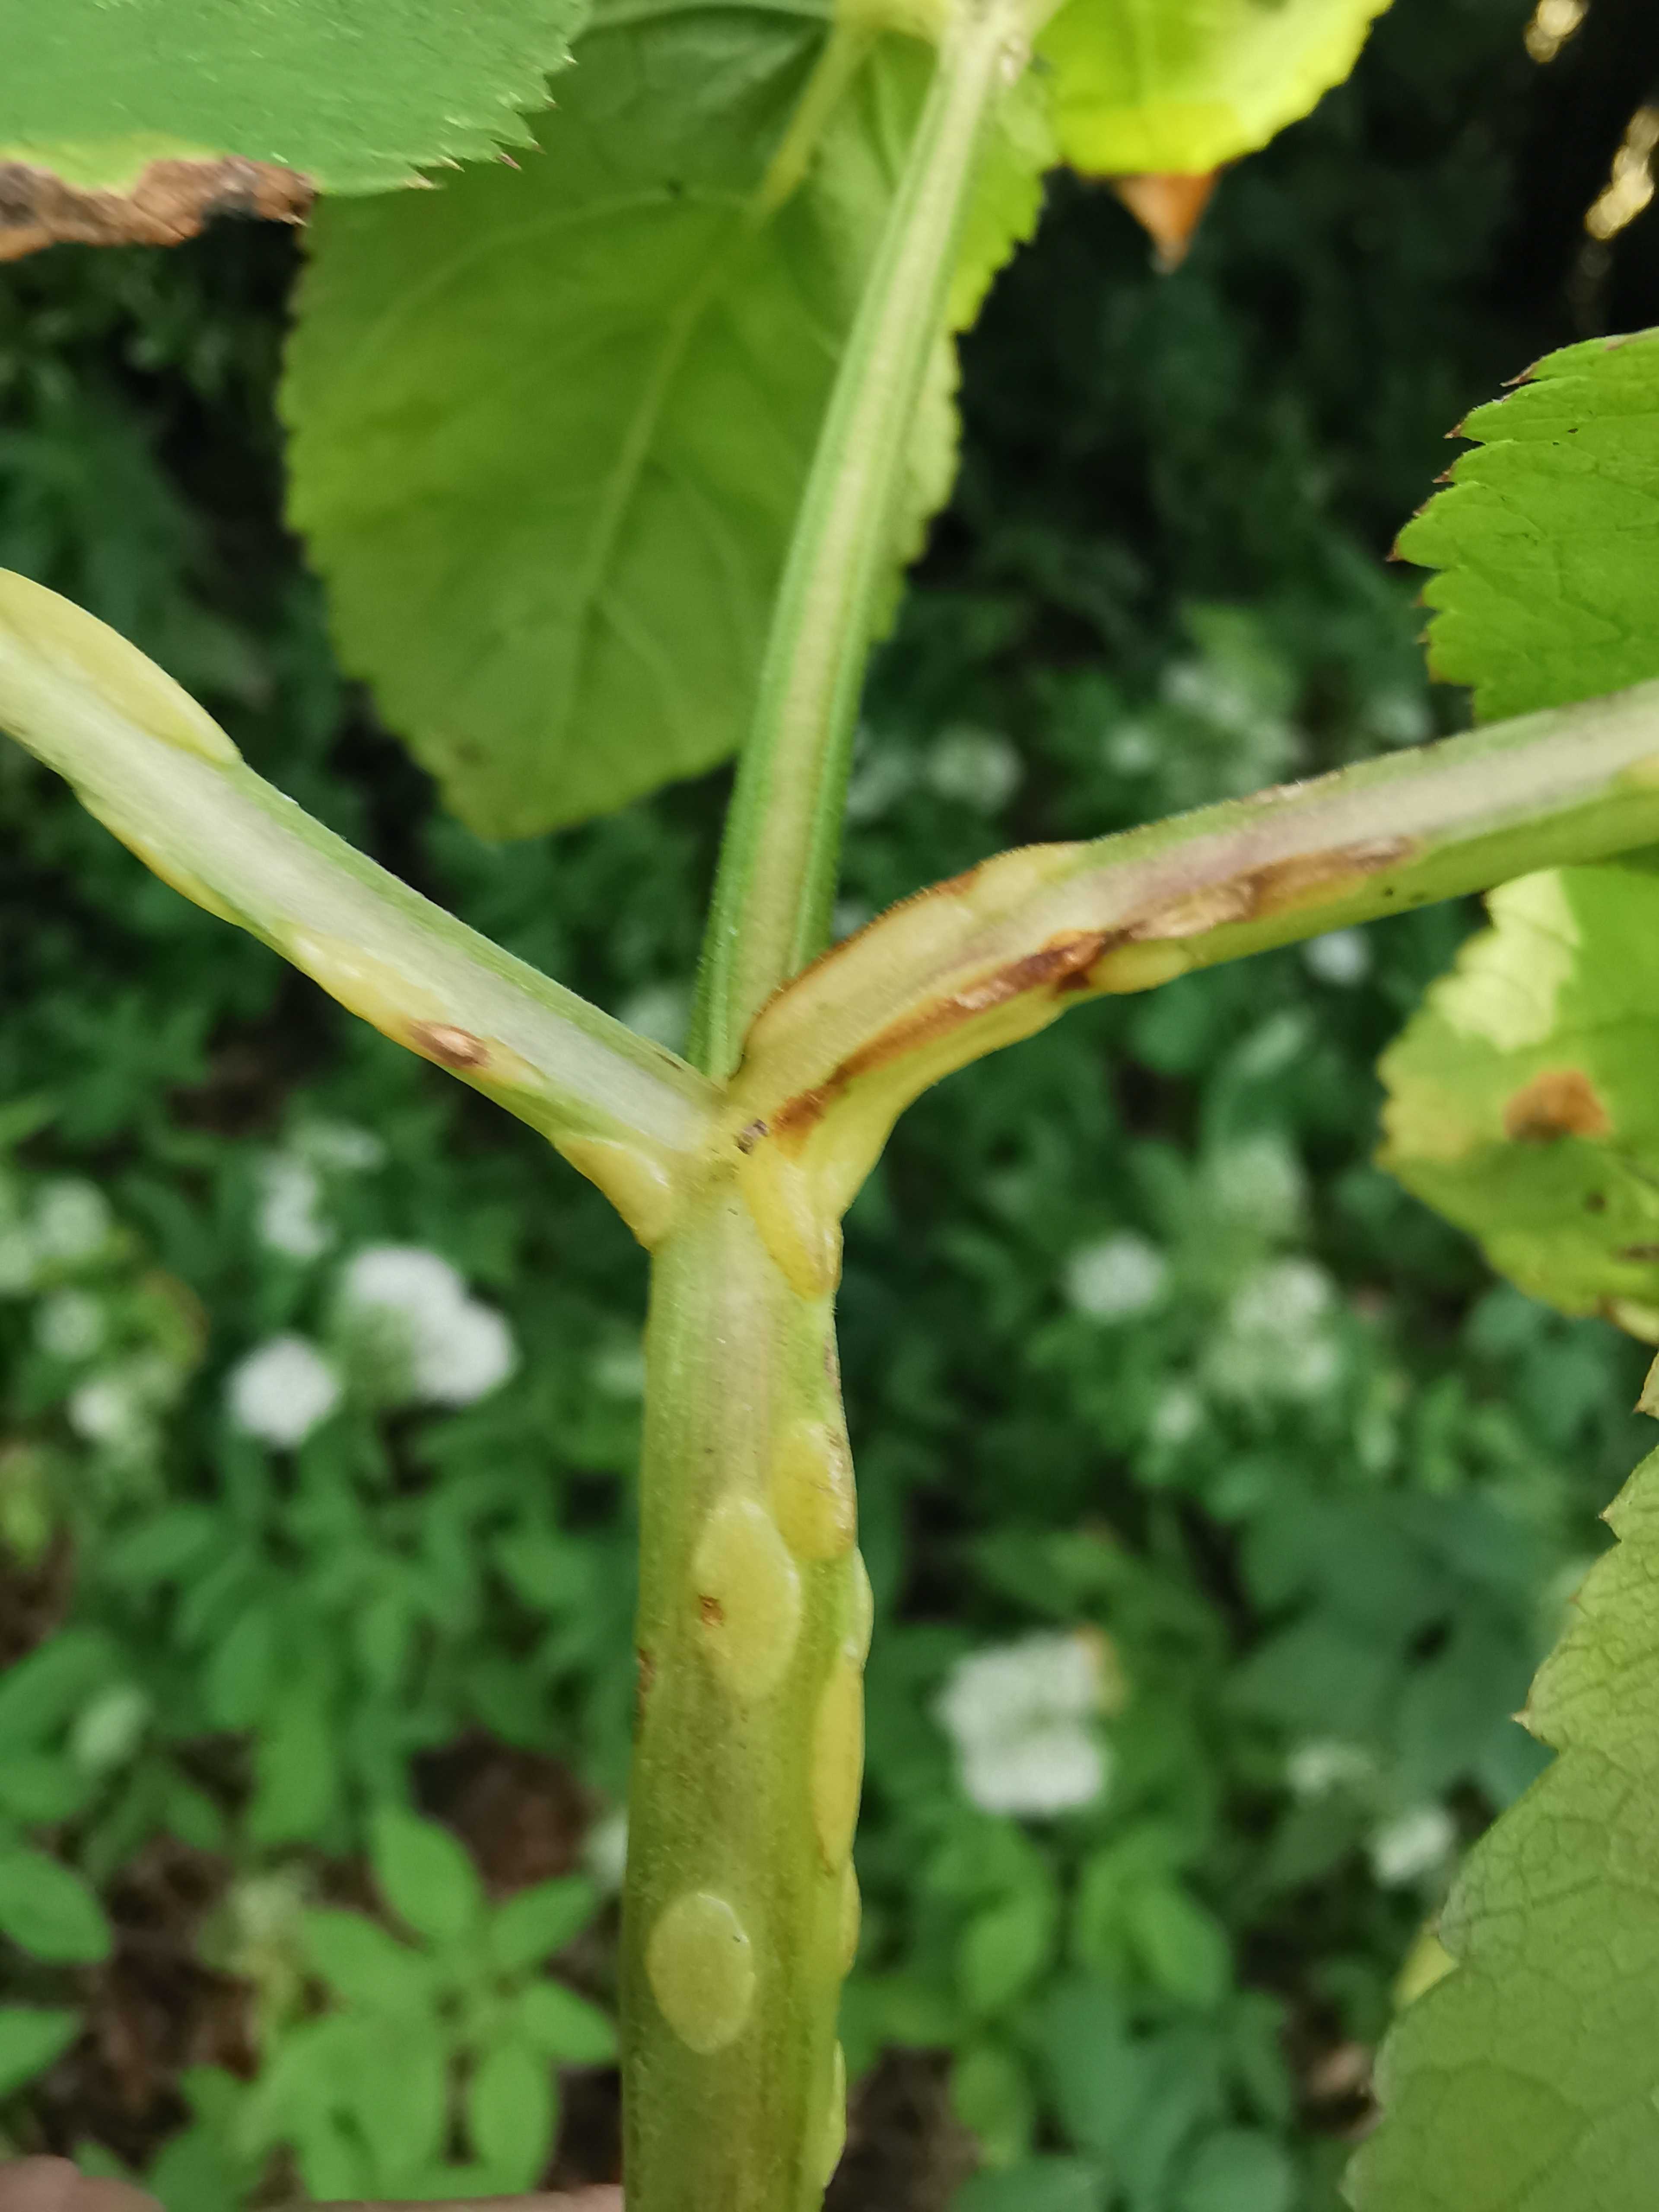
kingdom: Fungi
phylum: Ascomycota
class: Taphrinomycetes
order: Taphrinales
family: Taphrinaceae
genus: Protomyces
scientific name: Protomyces macrosporus
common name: skvalderkål-vablesæk
